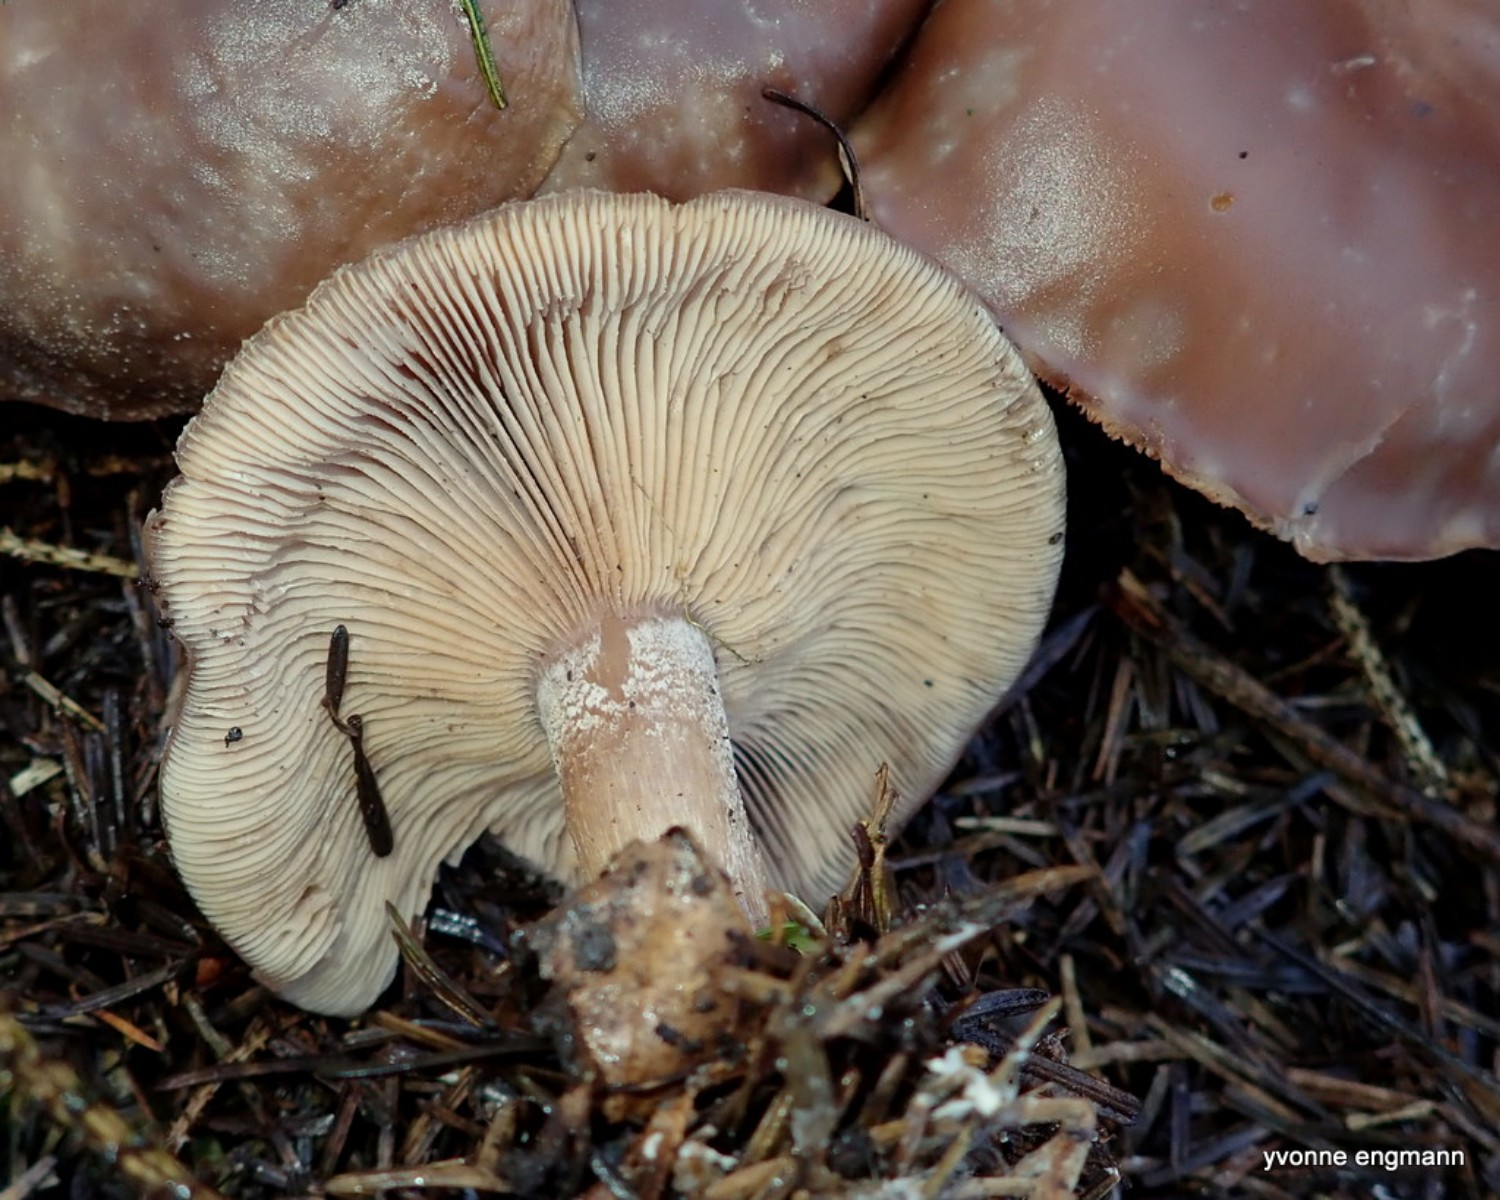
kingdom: Fungi
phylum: Basidiomycota
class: Agaricomycetes
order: Agaricales
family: Tricholomataceae
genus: Lepista
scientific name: Lepista
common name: hekseringshat
